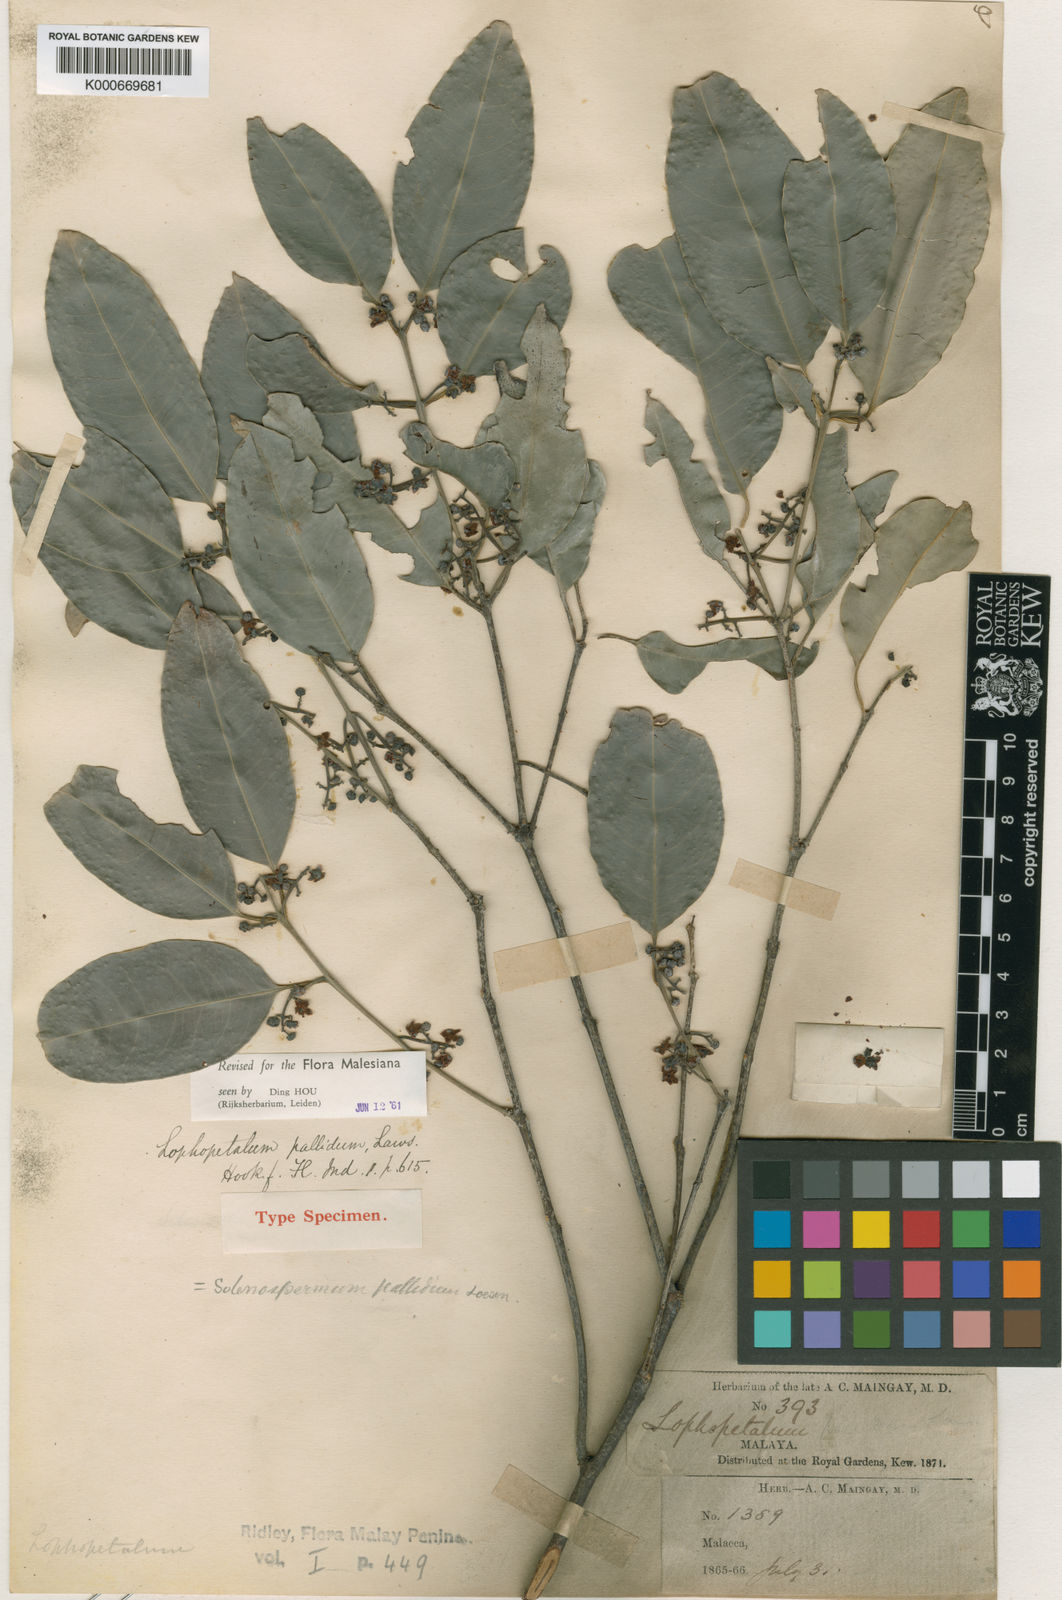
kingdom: Plantae
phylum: Tracheophyta
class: Magnoliopsida
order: Celastrales
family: Celastraceae
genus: Lophopetalum
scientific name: Lophopetalum pallidum
